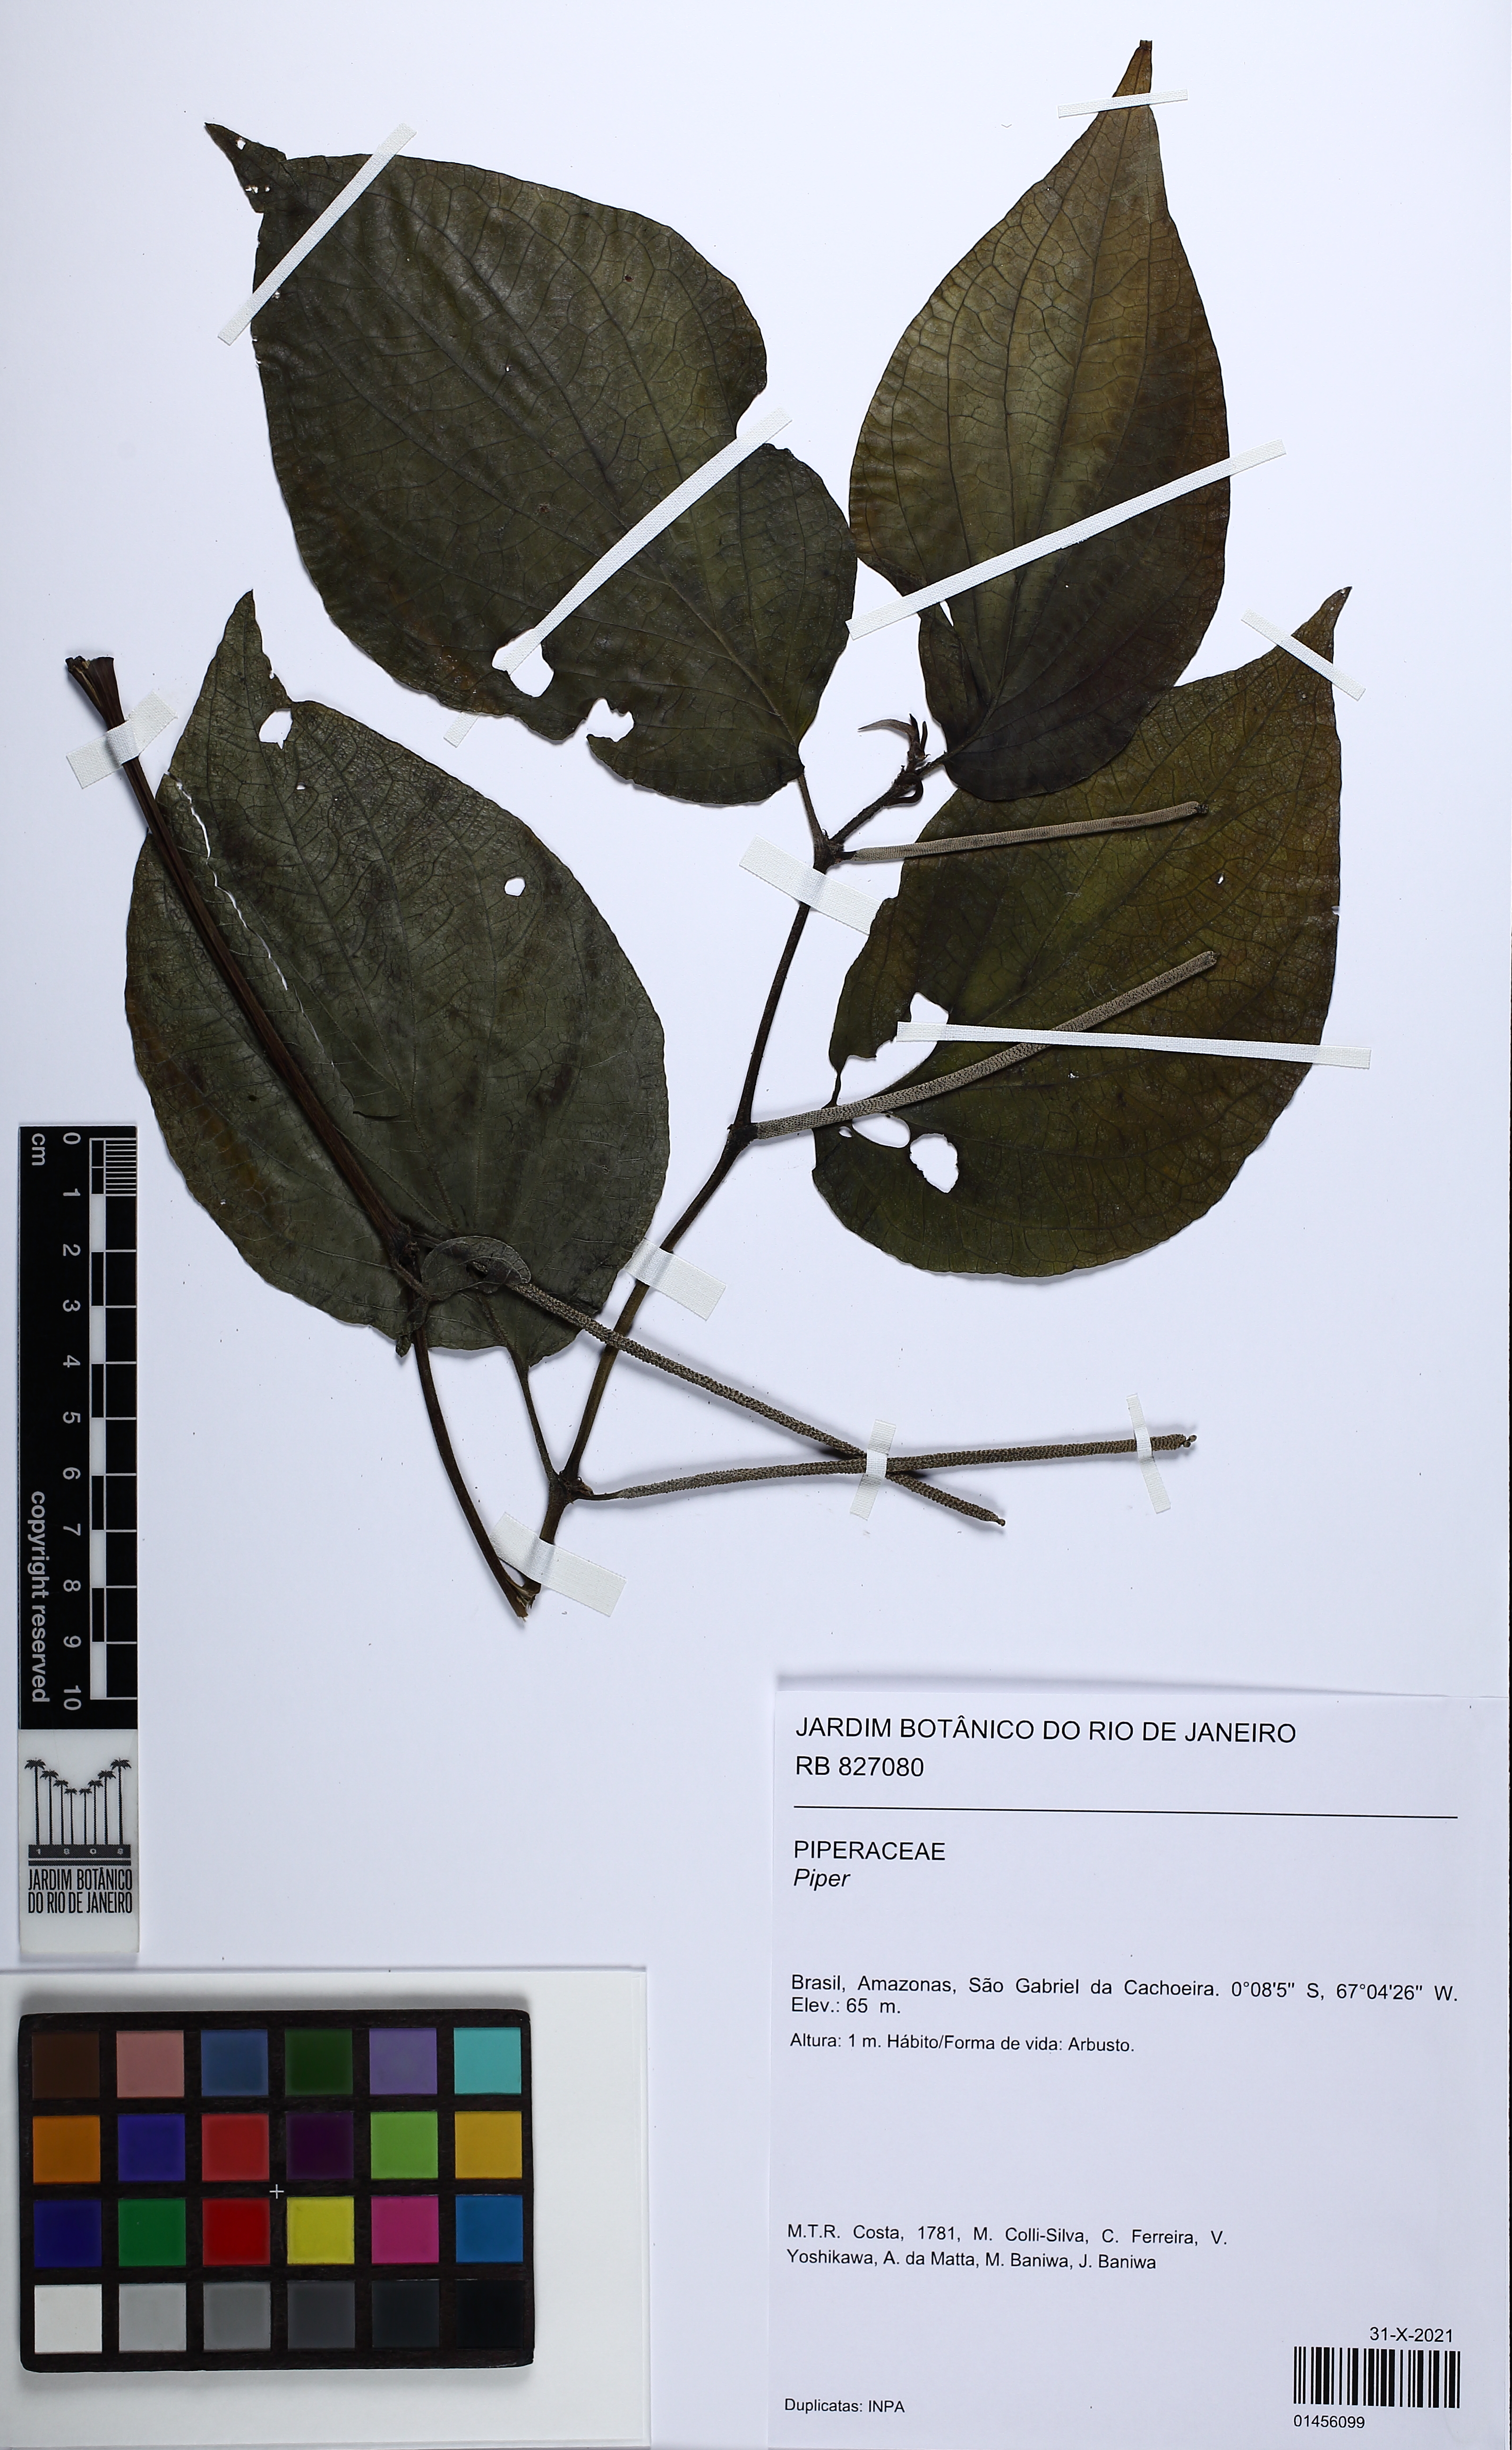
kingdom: Plantae
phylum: Tracheophyta
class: Magnoliopsida
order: Piperales
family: Piperaceae
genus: Piper
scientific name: Piper
